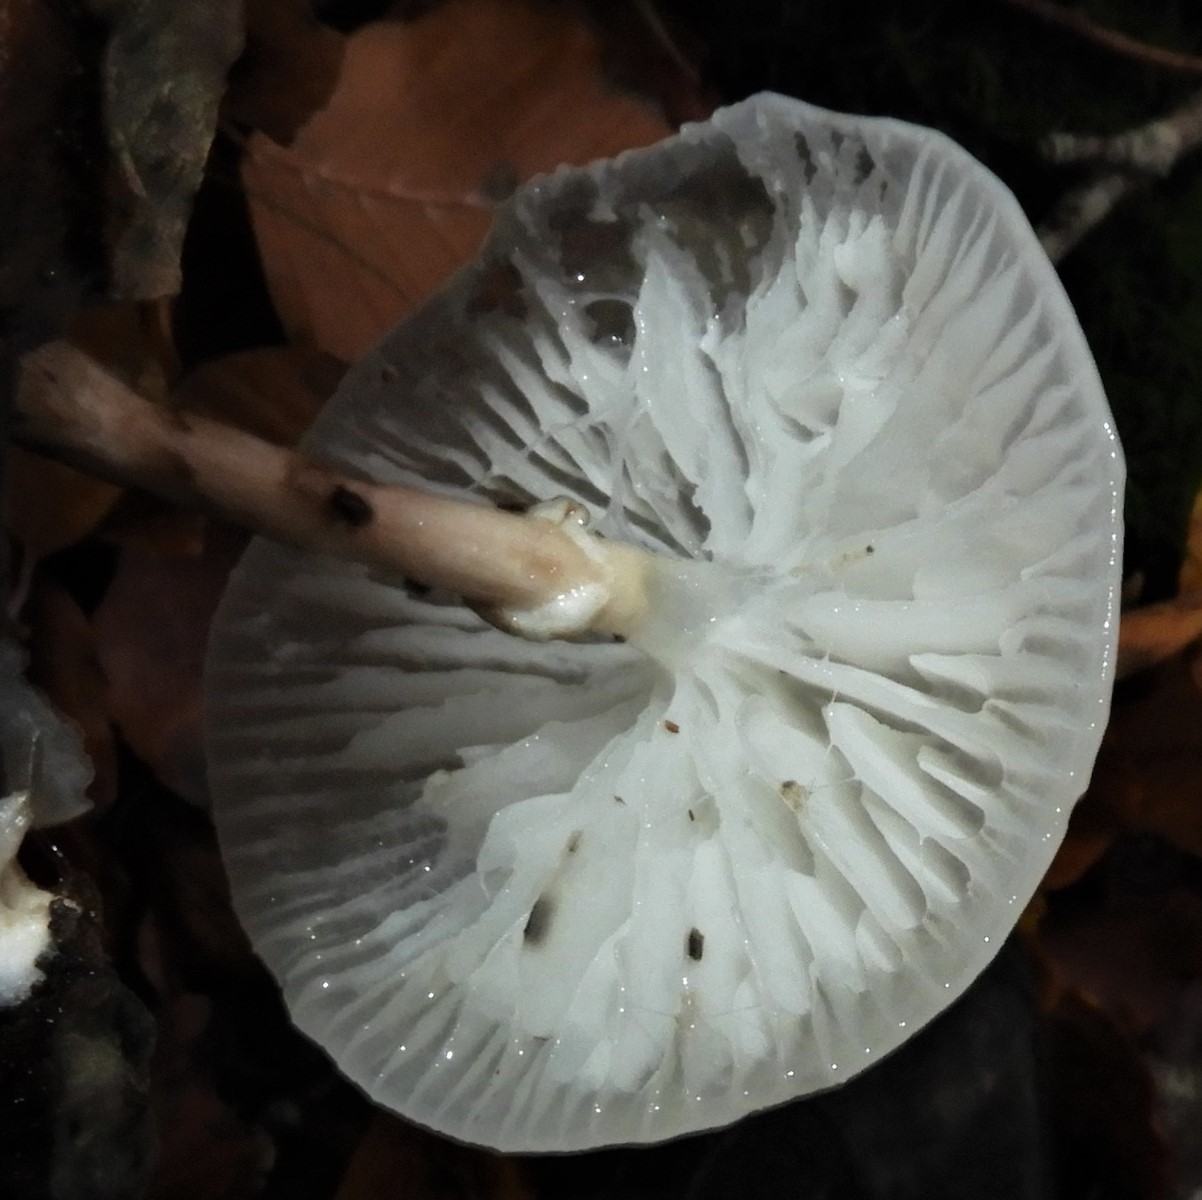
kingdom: Fungi
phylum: Basidiomycota
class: Agaricomycetes
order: Agaricales
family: Physalacriaceae
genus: Mucidula
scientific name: Mucidula mucida
